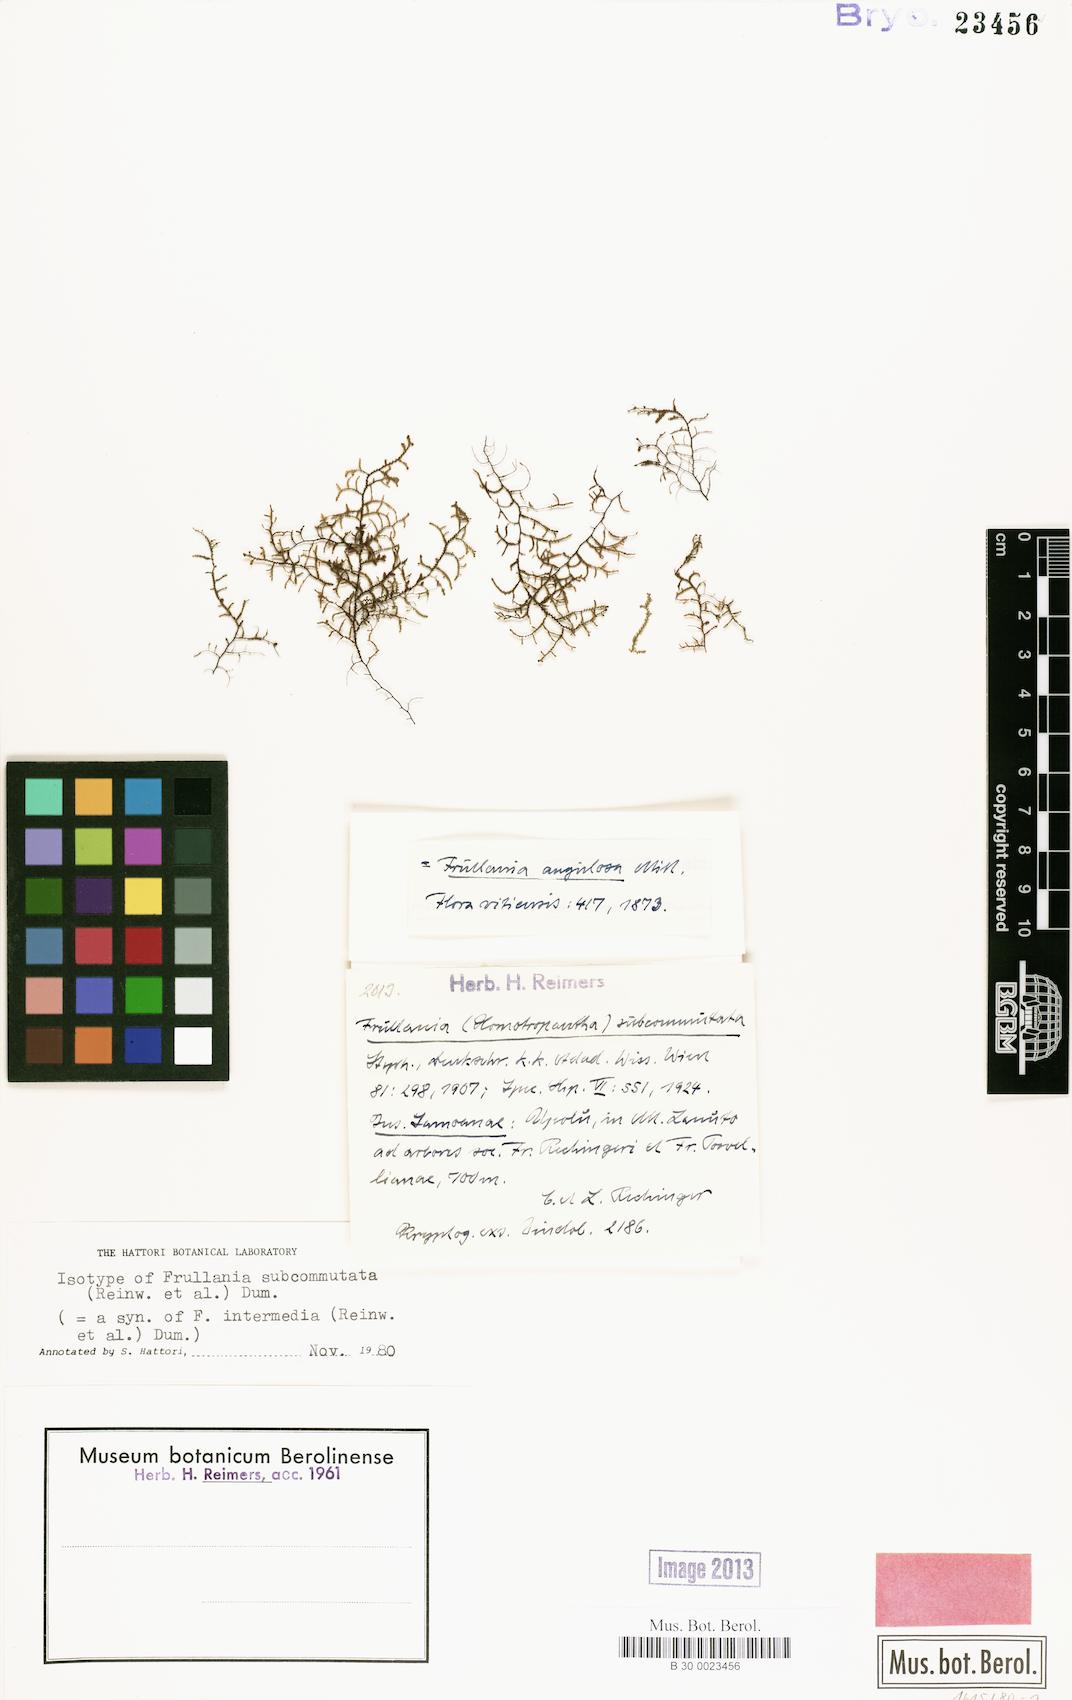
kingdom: Plantae
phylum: Marchantiophyta
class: Jungermanniopsida
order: Porellales
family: Frullaniaceae
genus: Frullania
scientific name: Frullania intermedia
